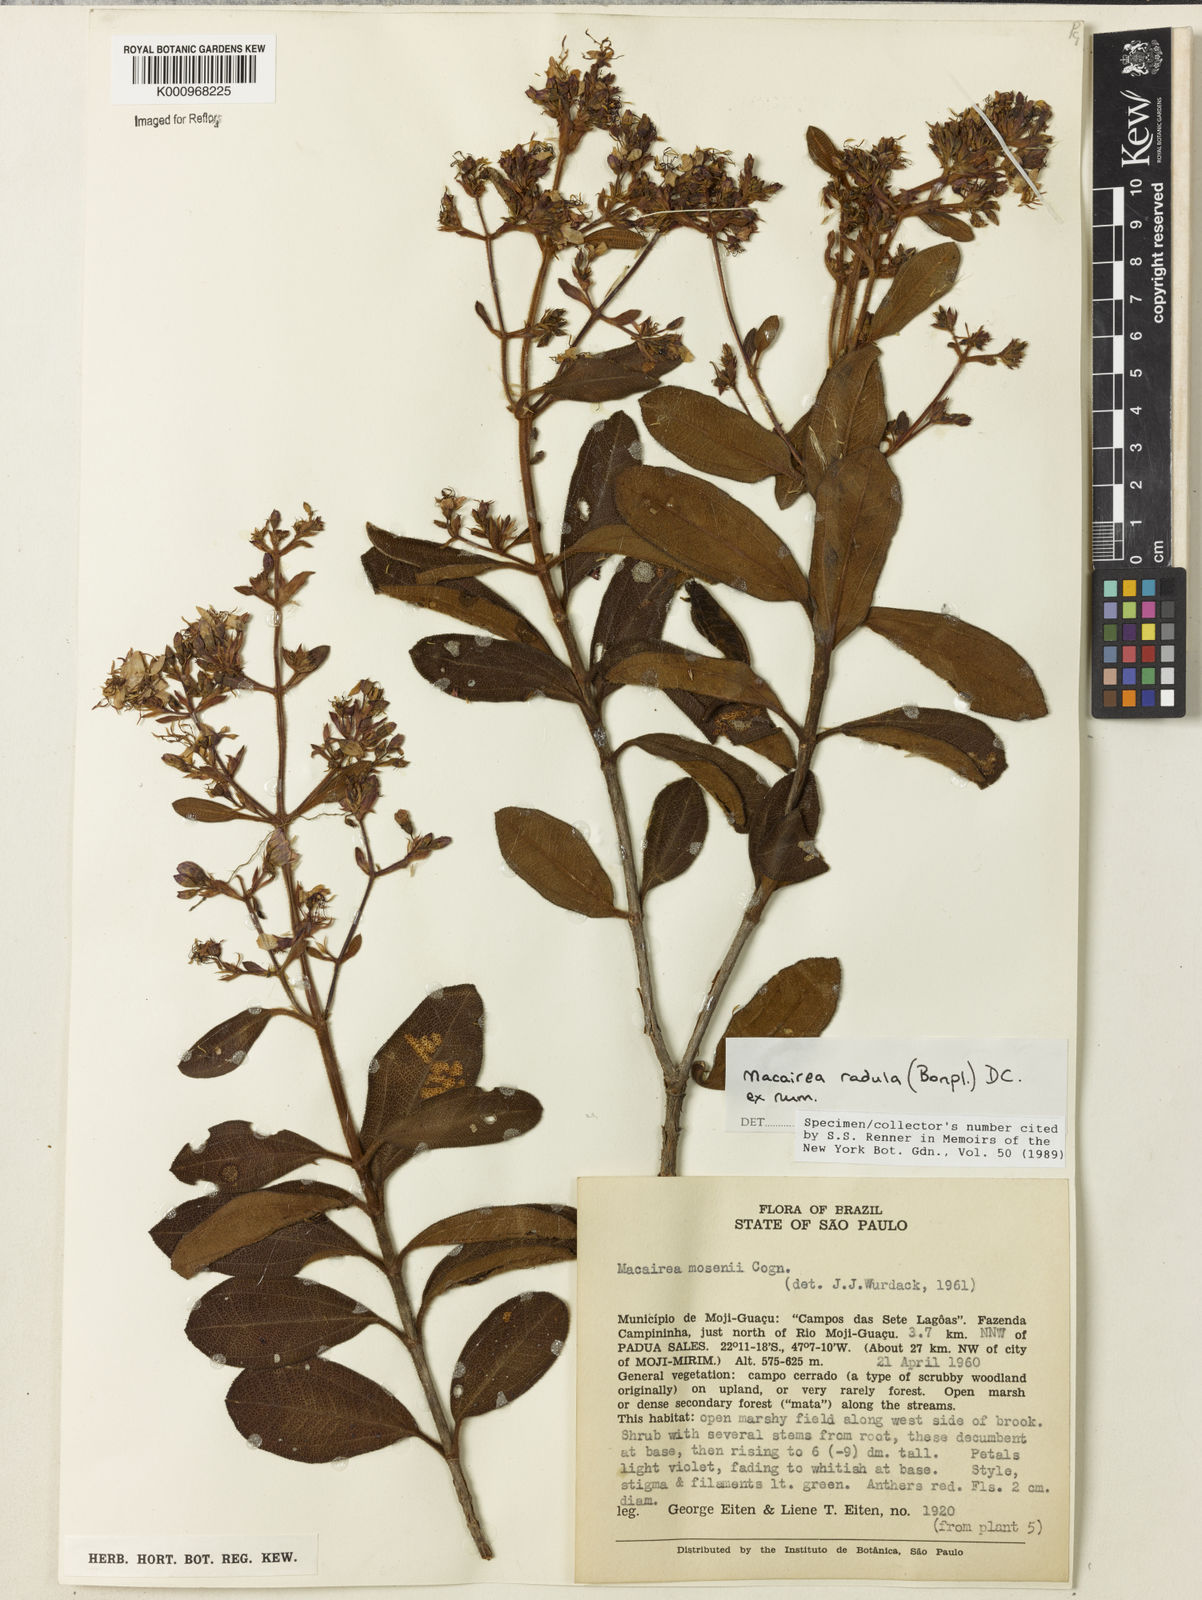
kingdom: Plantae
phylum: Tracheophyta
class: Magnoliopsida
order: Myrtales
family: Melastomataceae
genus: Macairea
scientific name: Macairea radula
